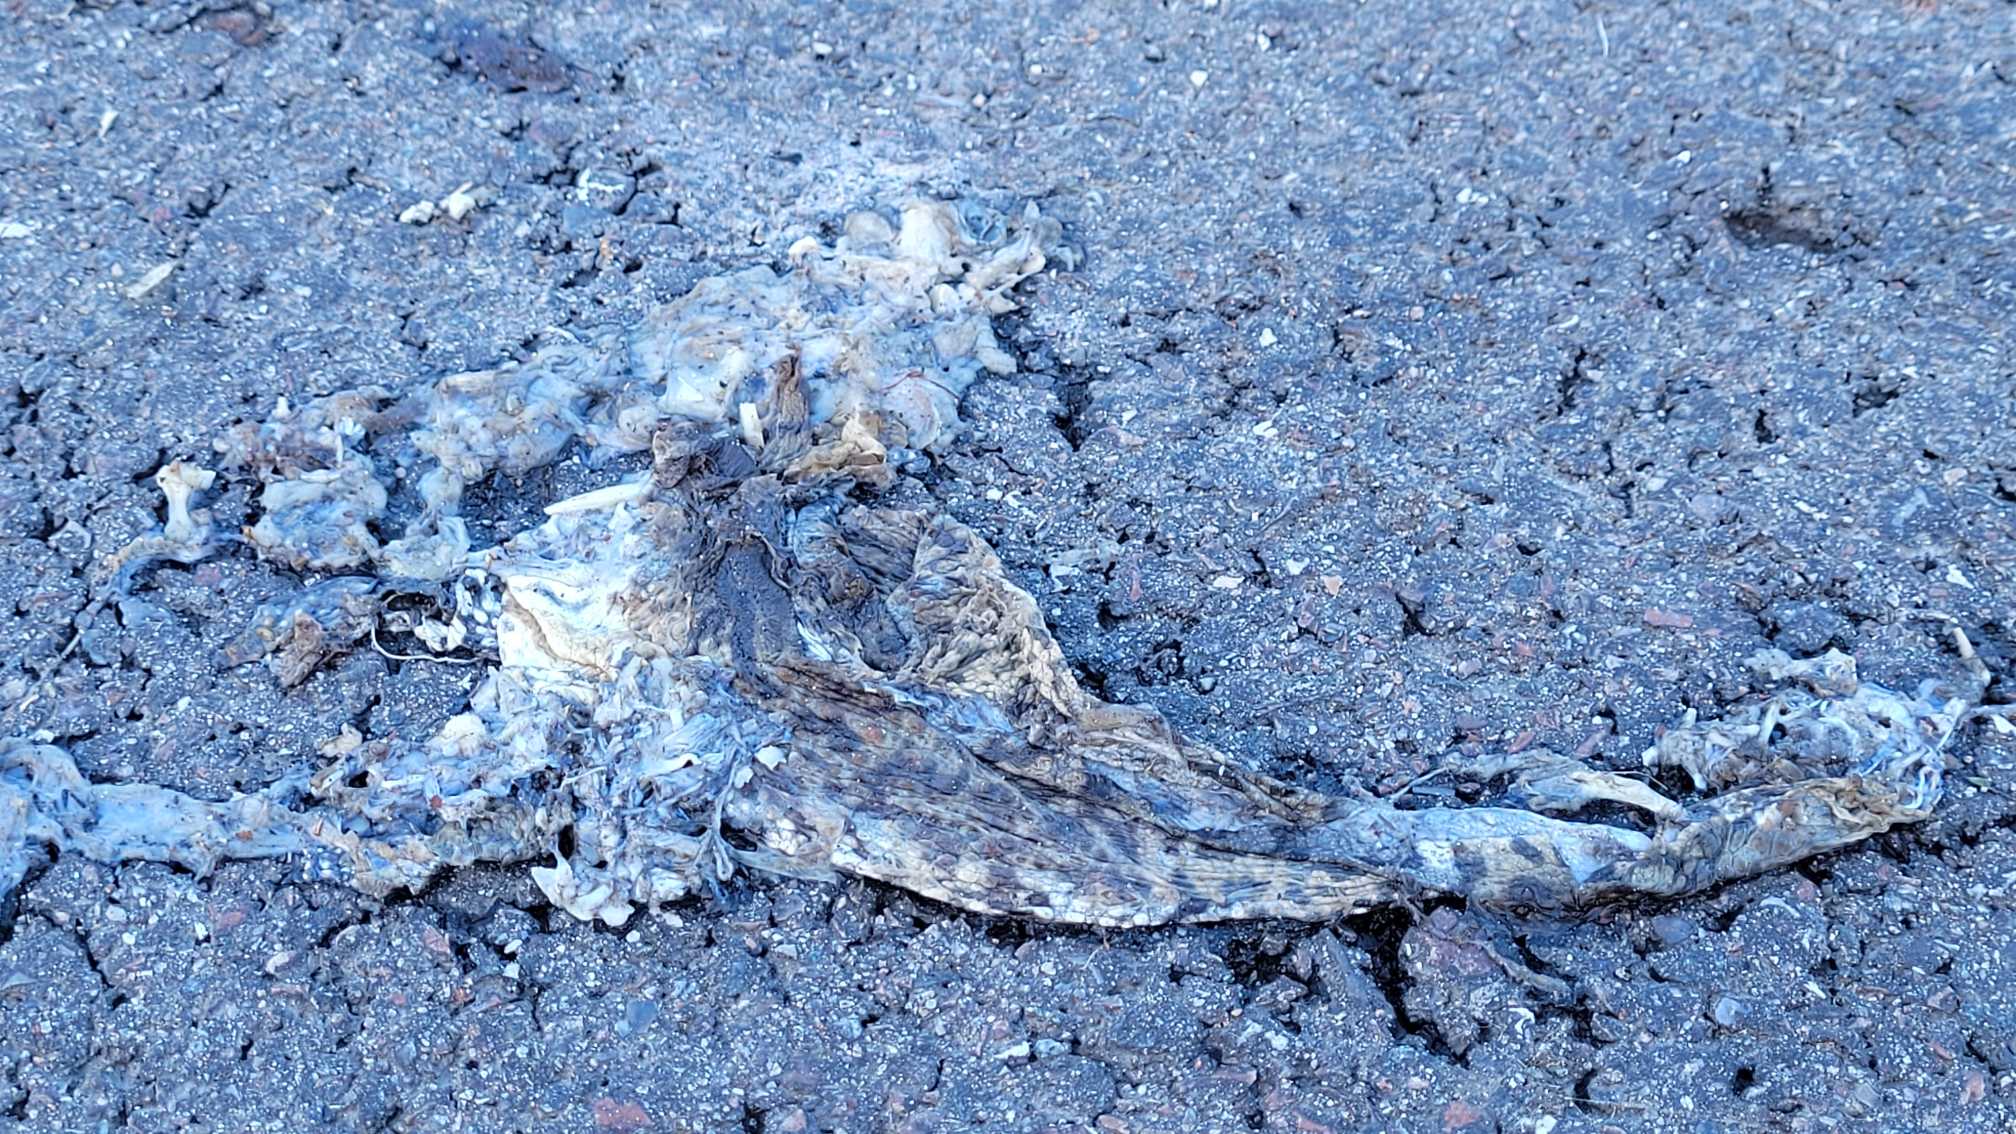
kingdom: Animalia
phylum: Chordata
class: Amphibia
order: Anura
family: Bufonidae
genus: Bufo
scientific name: Bufo bufo
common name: Skrubtudse
